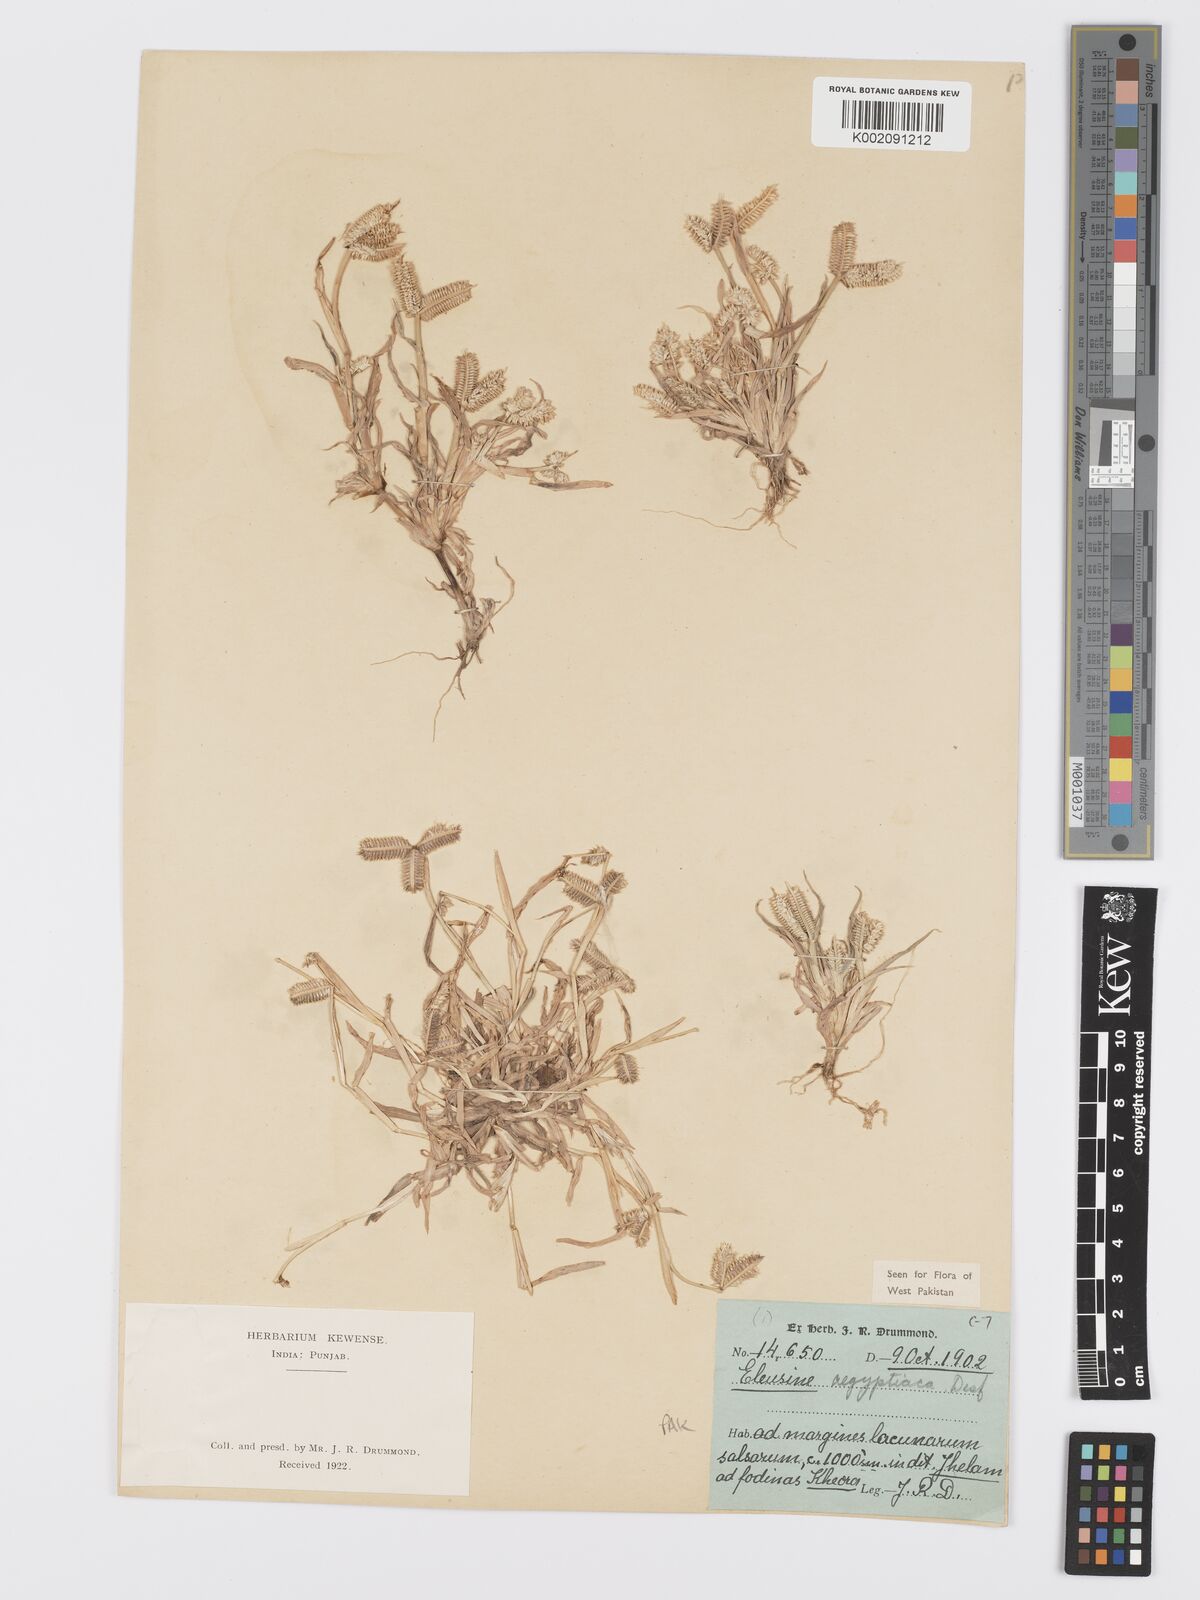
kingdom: Plantae
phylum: Tracheophyta
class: Liliopsida
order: Poales
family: Poaceae
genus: Dactyloctenium
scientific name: Dactyloctenium aegyptium
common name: Egyptian grass
